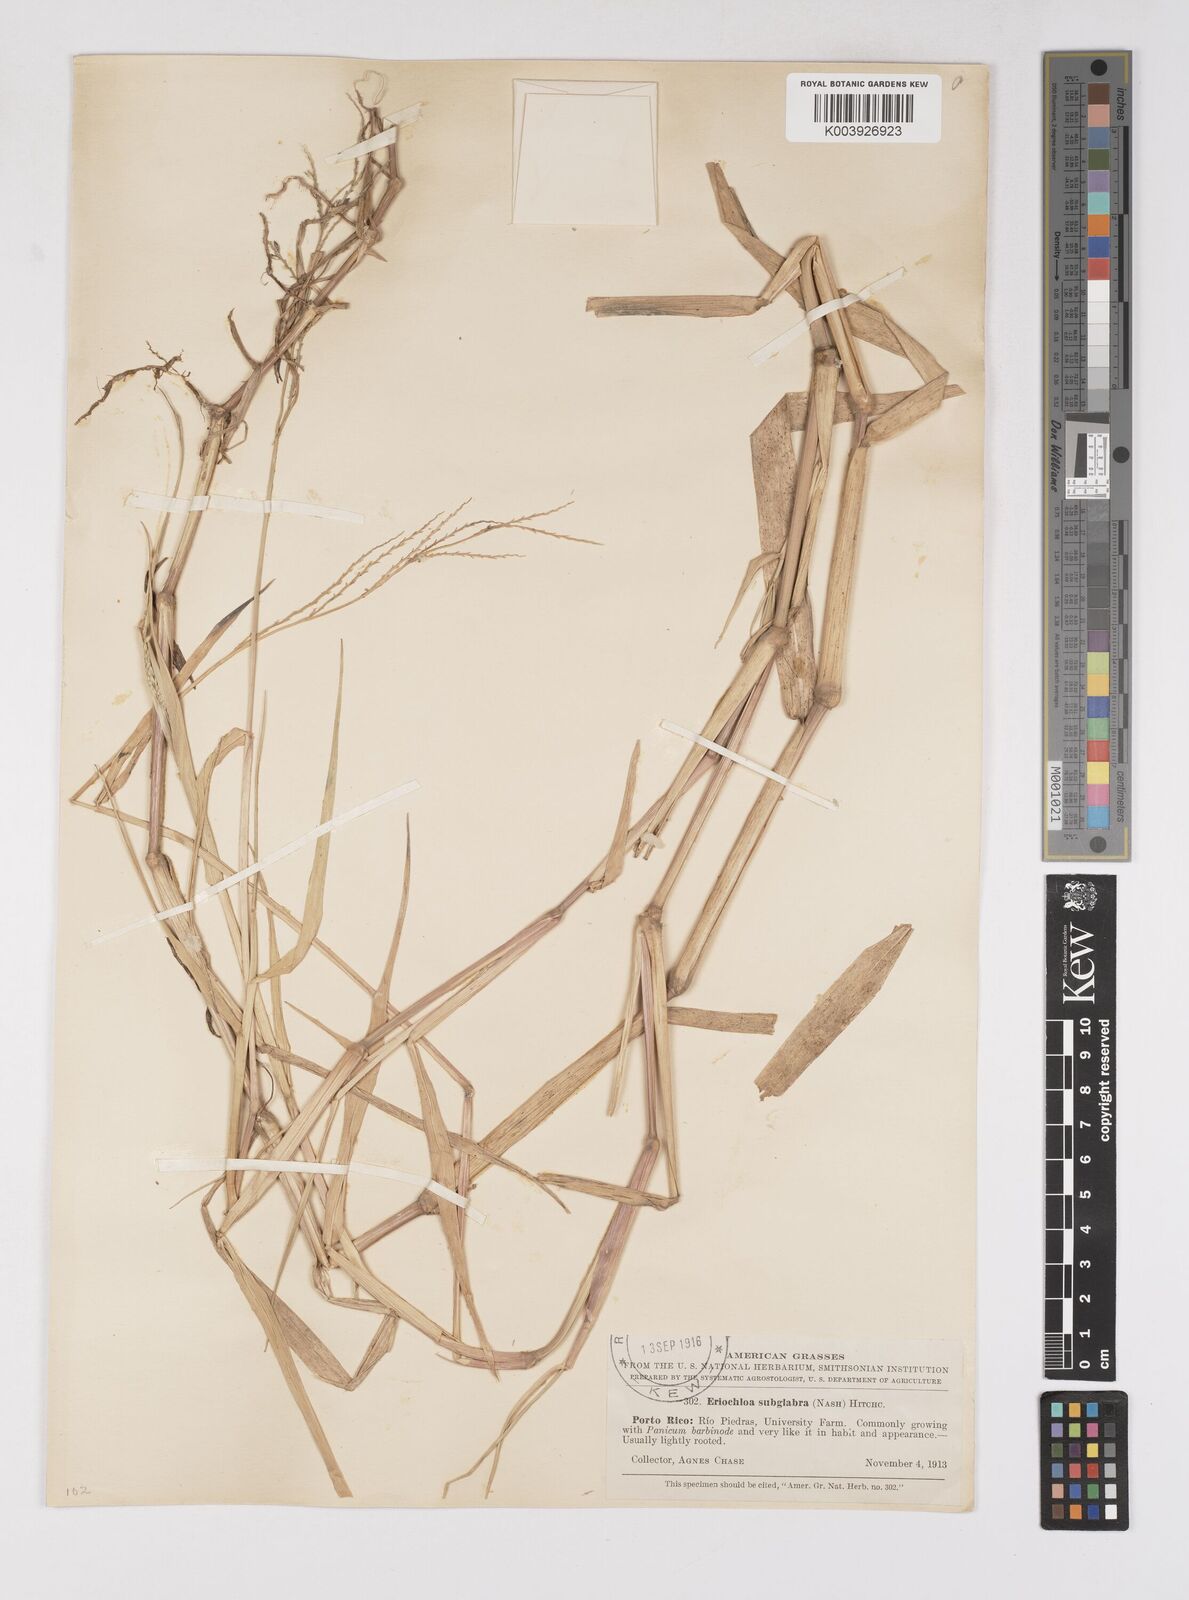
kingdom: Plantae
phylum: Tracheophyta
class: Liliopsida
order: Poales
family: Poaceae
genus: Urochloa
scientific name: Urochloa polystachya
